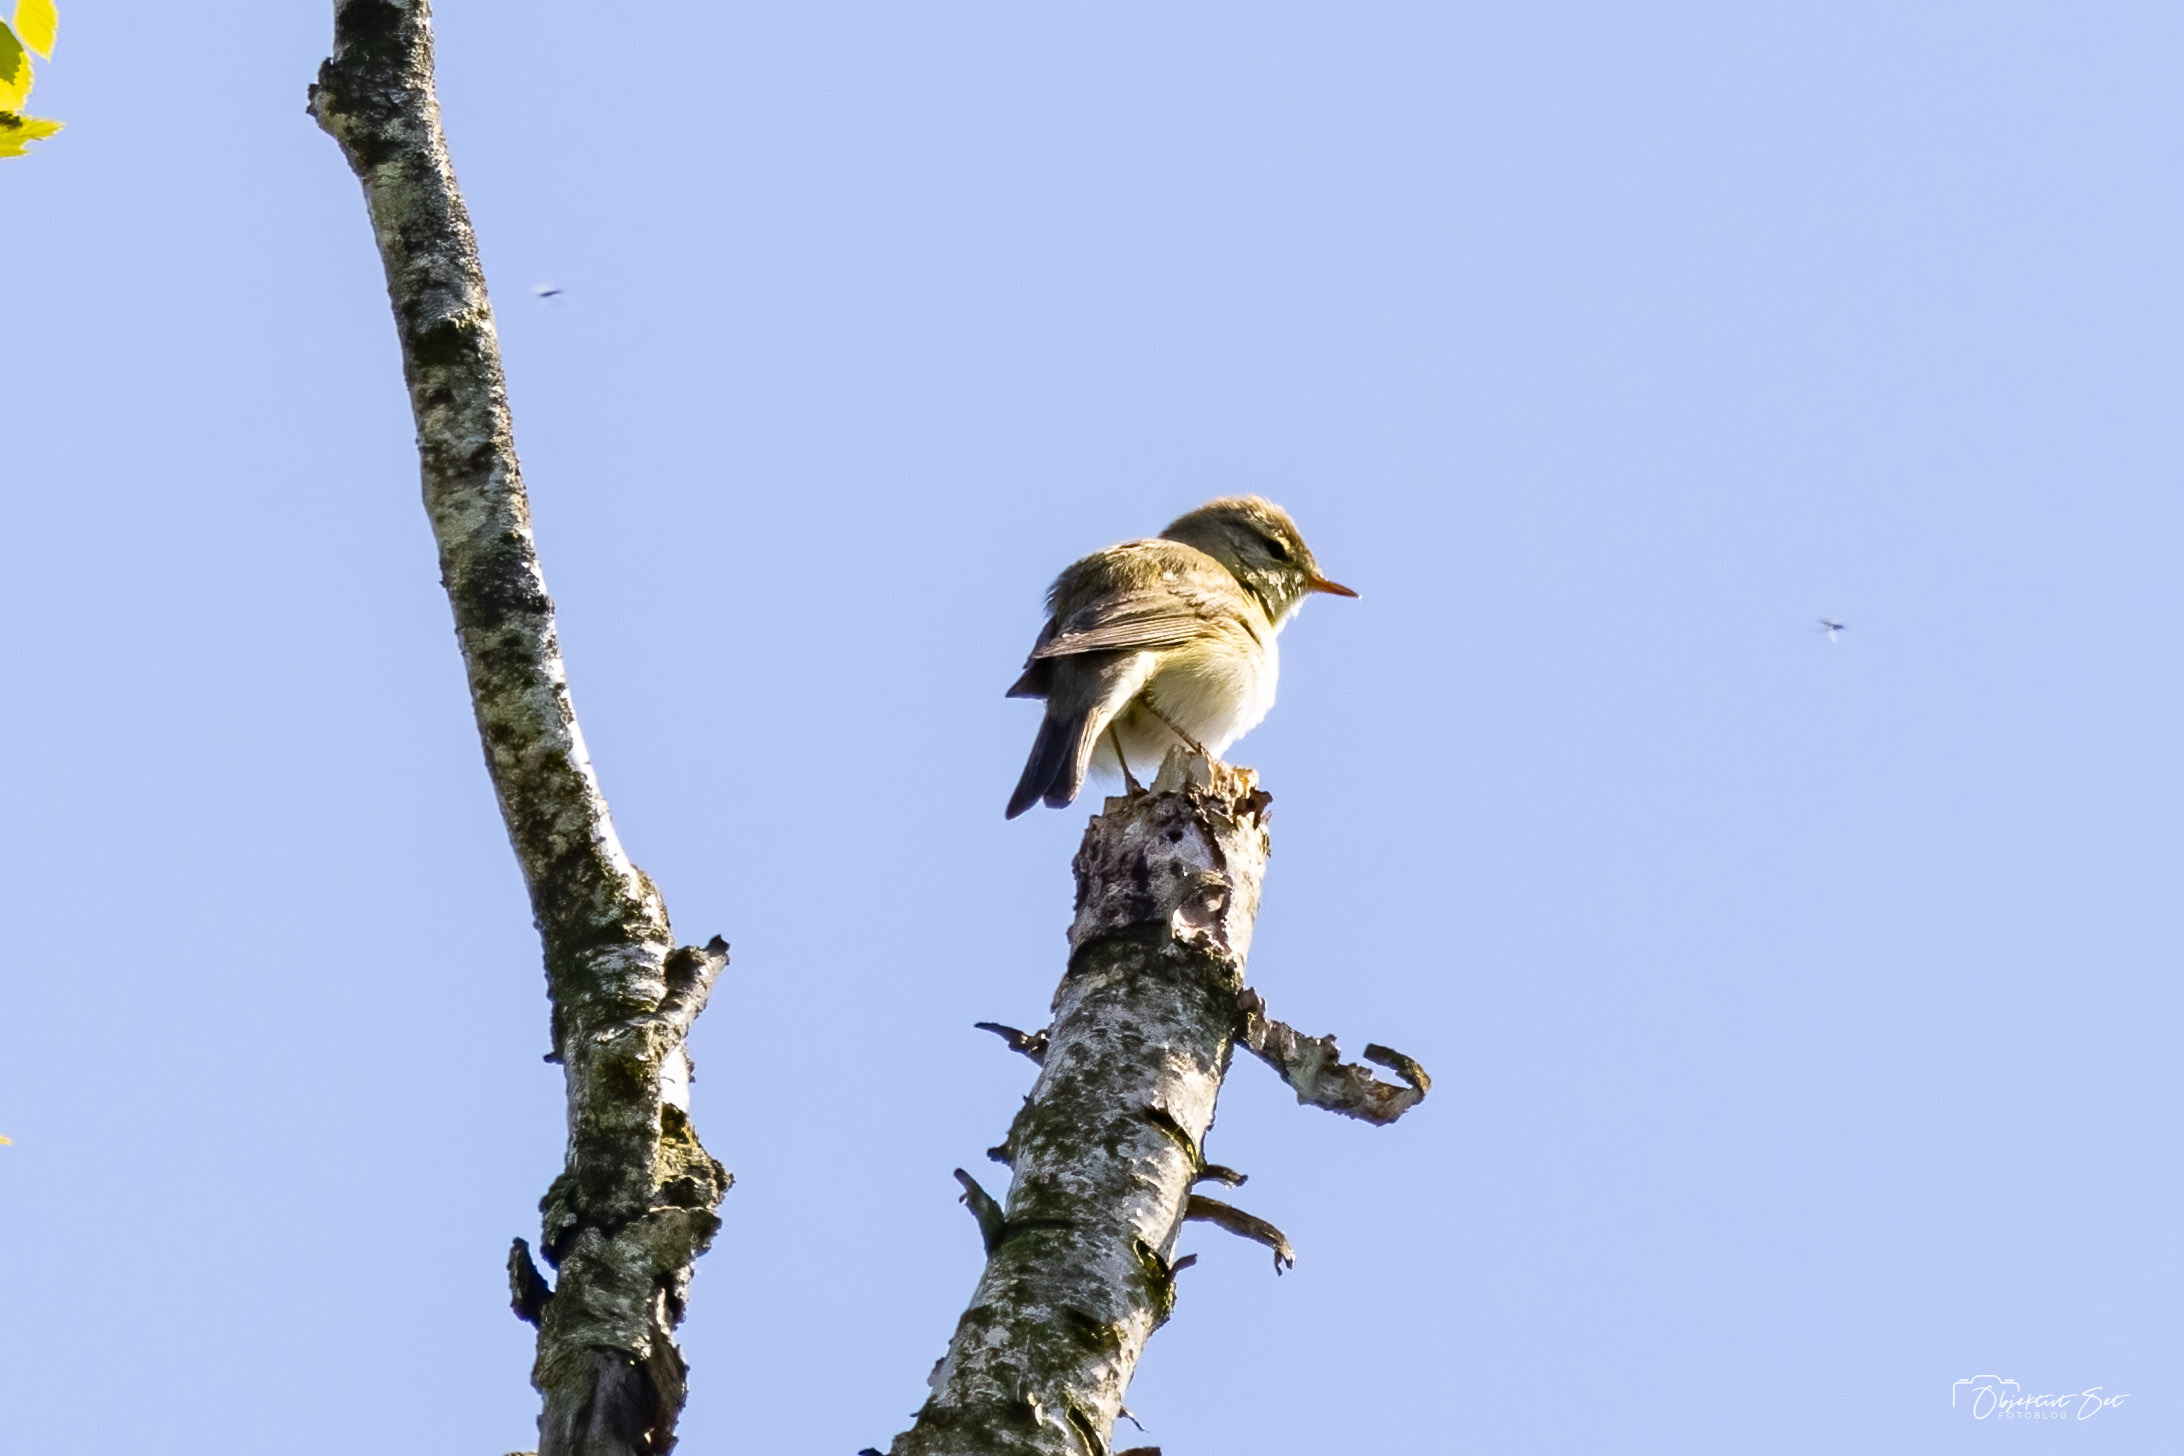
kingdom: Animalia
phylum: Chordata
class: Aves
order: Passeriformes
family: Phylloscopidae
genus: Phylloscopus
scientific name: Phylloscopus trochilus
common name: Løvsanger
